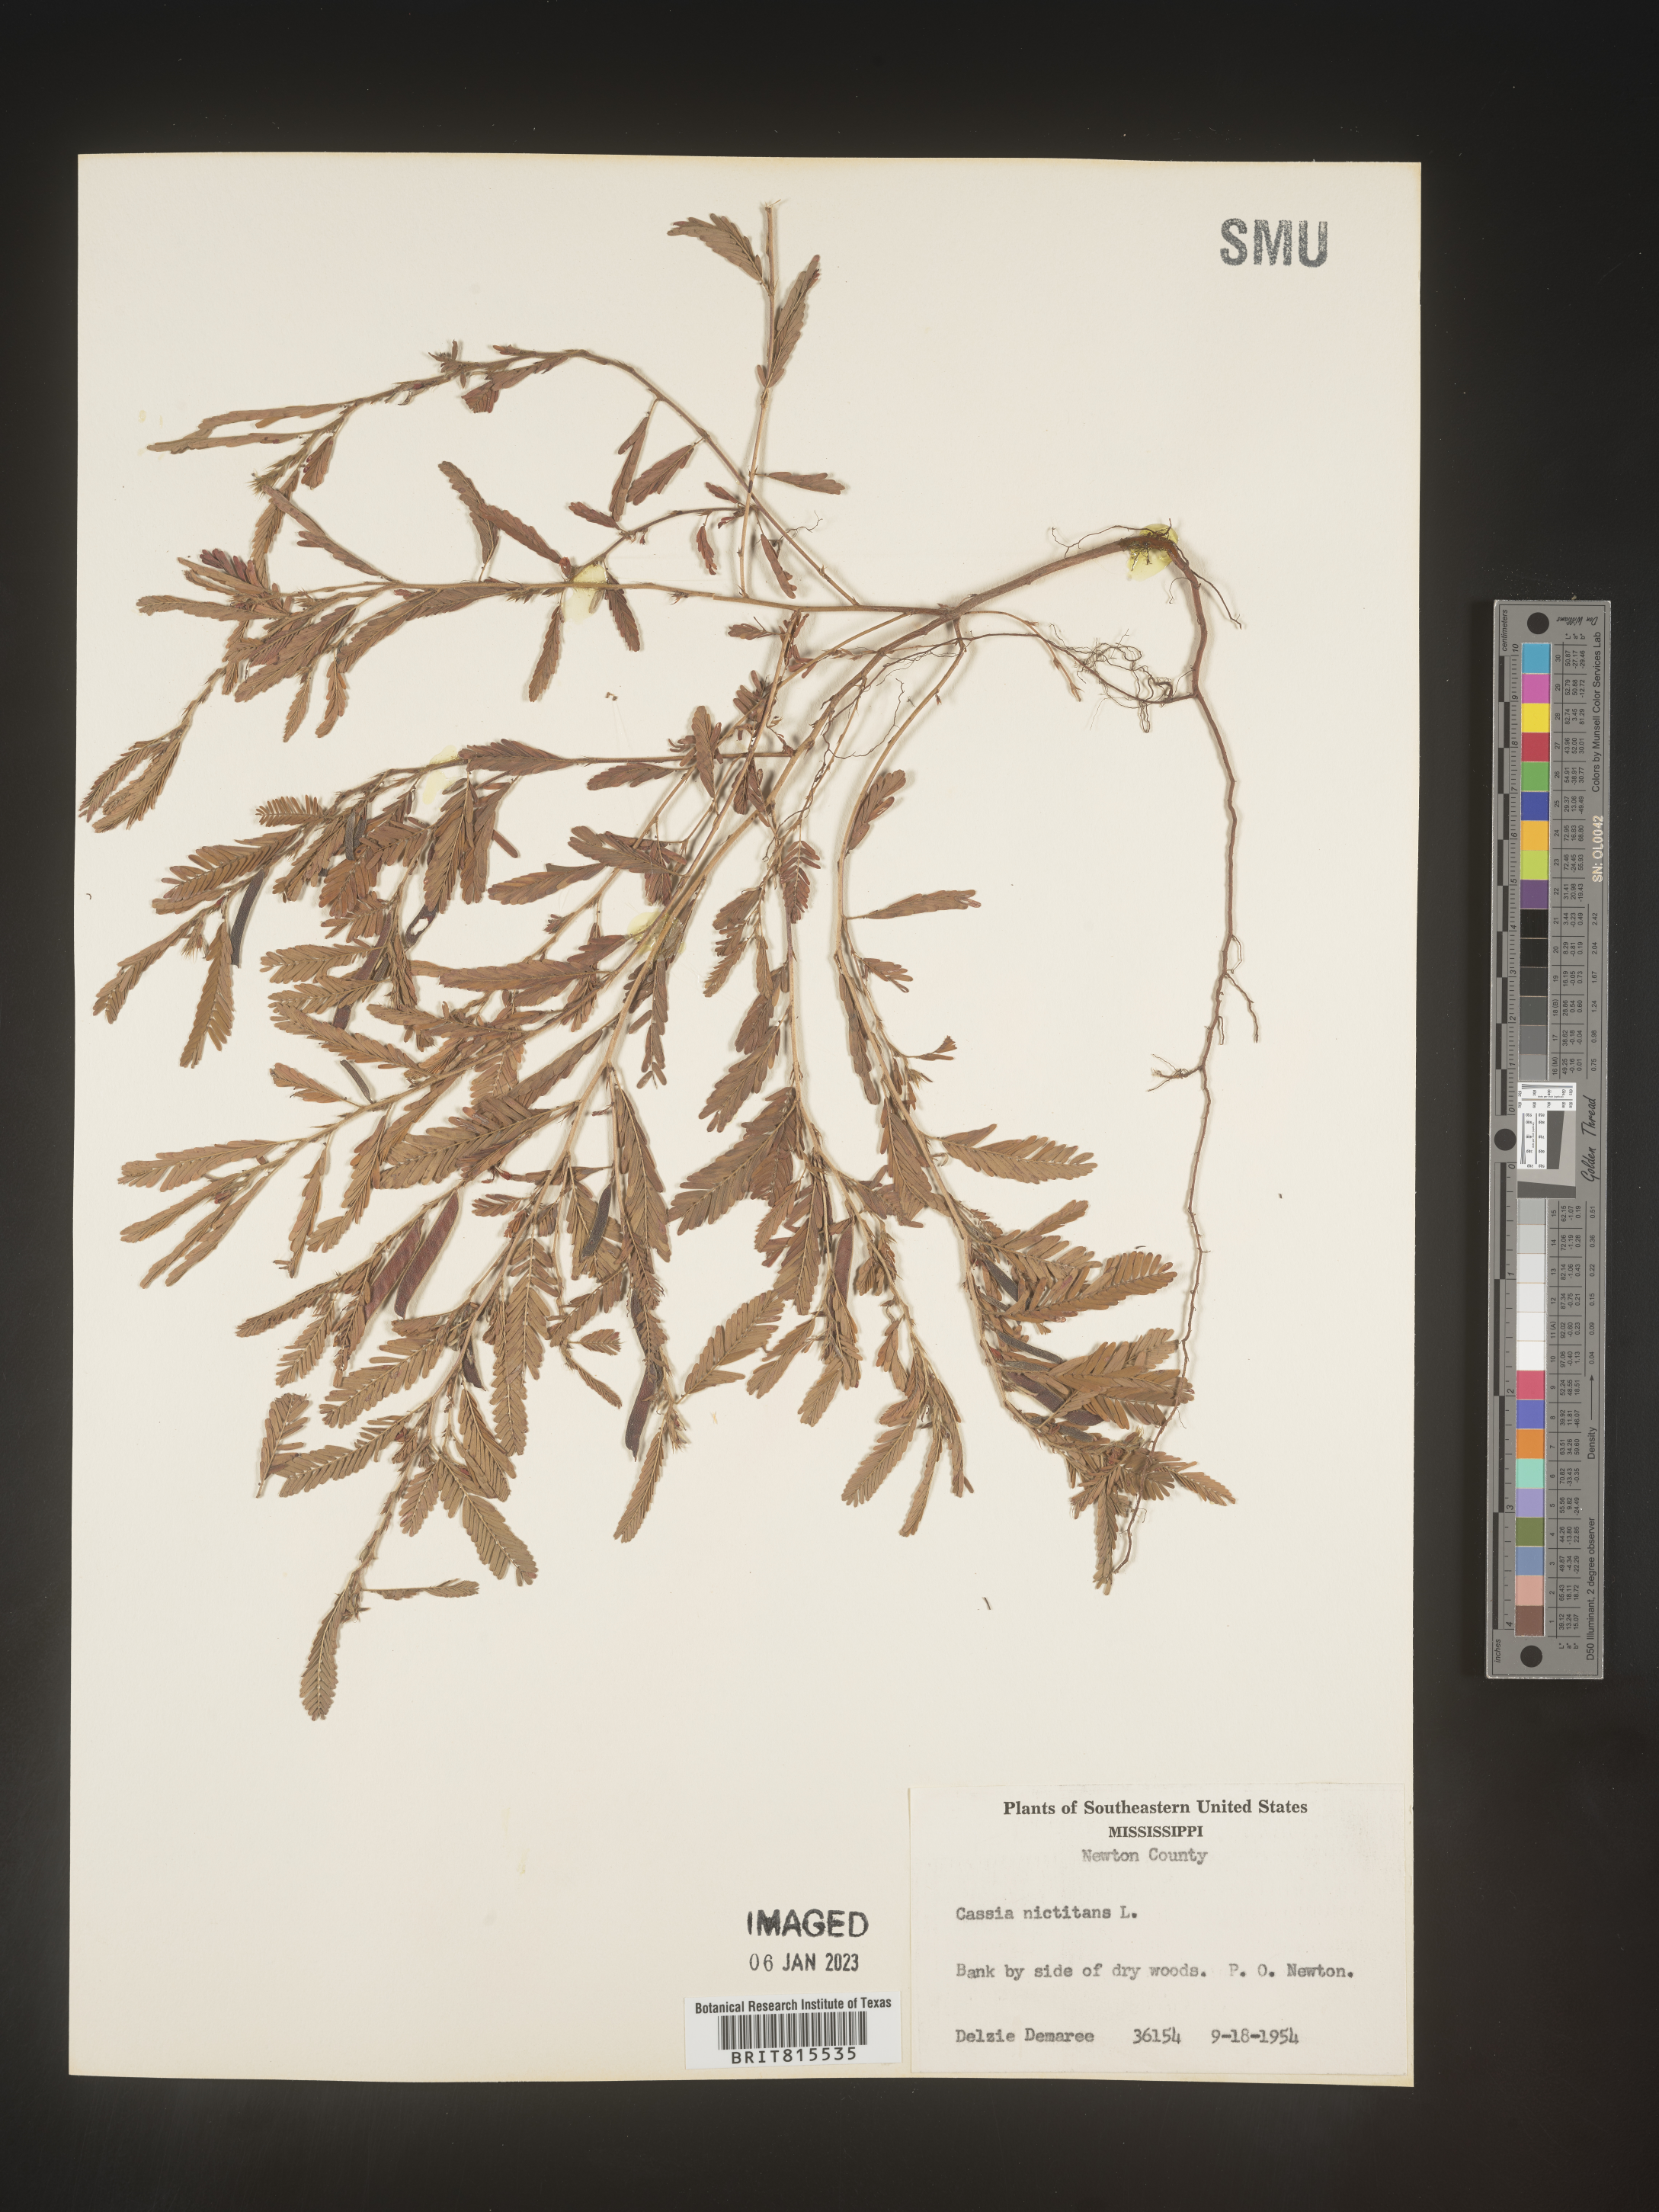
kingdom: Plantae
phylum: Tracheophyta
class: Magnoliopsida
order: Fabales
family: Fabaceae
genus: Chamaecrista
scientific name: Chamaecrista nictitans
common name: Sensitive cassia
